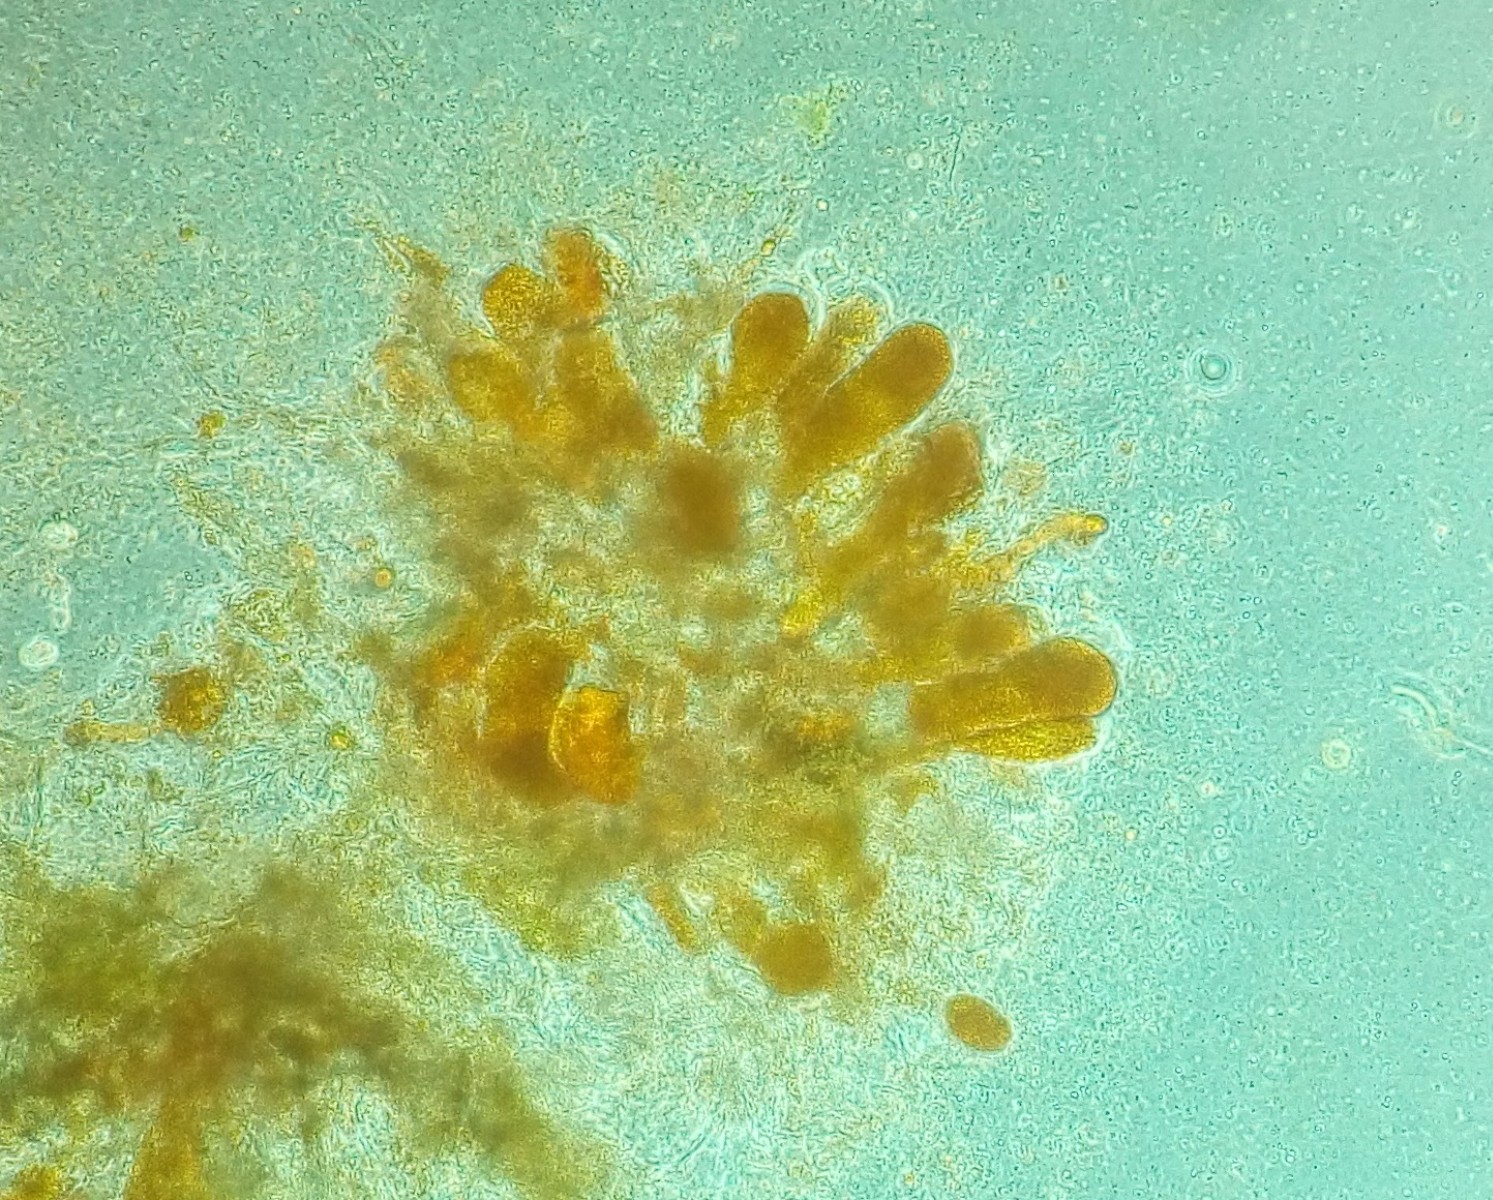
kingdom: Fungi
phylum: Basidiomycota
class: Pucciniomycetes
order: Pucciniales
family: Coleosporiaceae
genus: Coleosporium
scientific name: Coleosporium tussilaginis
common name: almindelig fyrrenålerust
